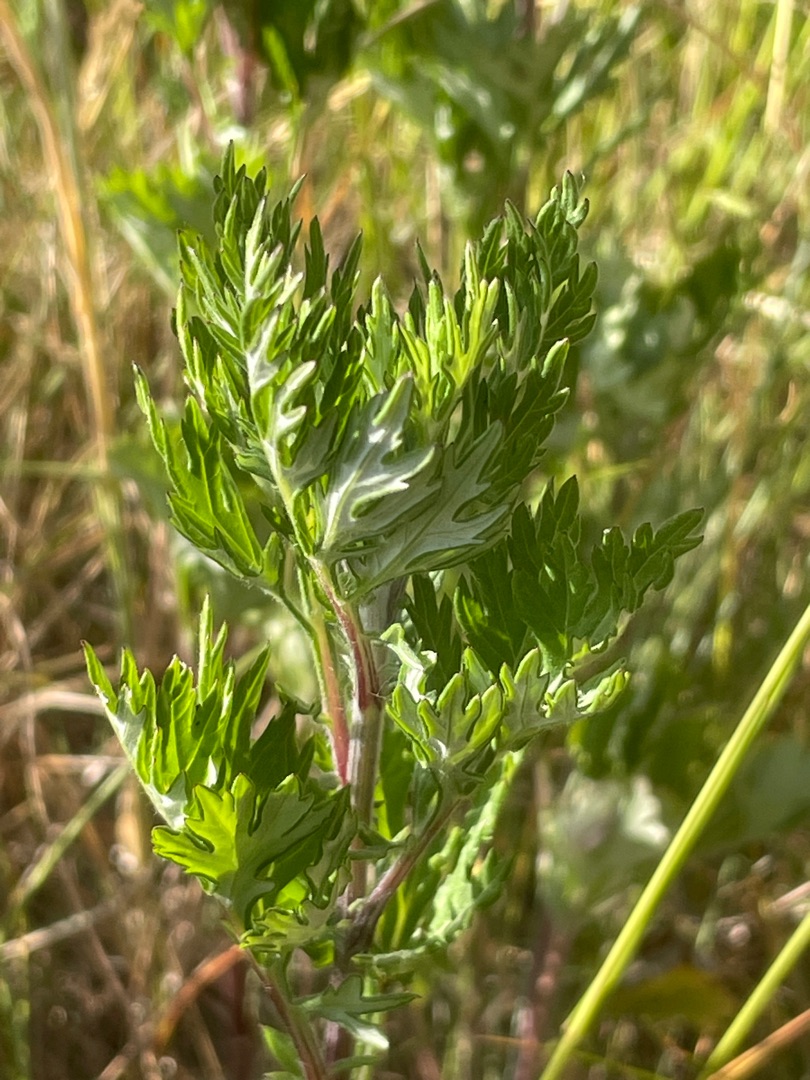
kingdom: Plantae
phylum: Tracheophyta
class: Magnoliopsida
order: Asterales
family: Asteraceae
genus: Artemisia
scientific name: Artemisia vulgaris
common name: Grå-bynke
